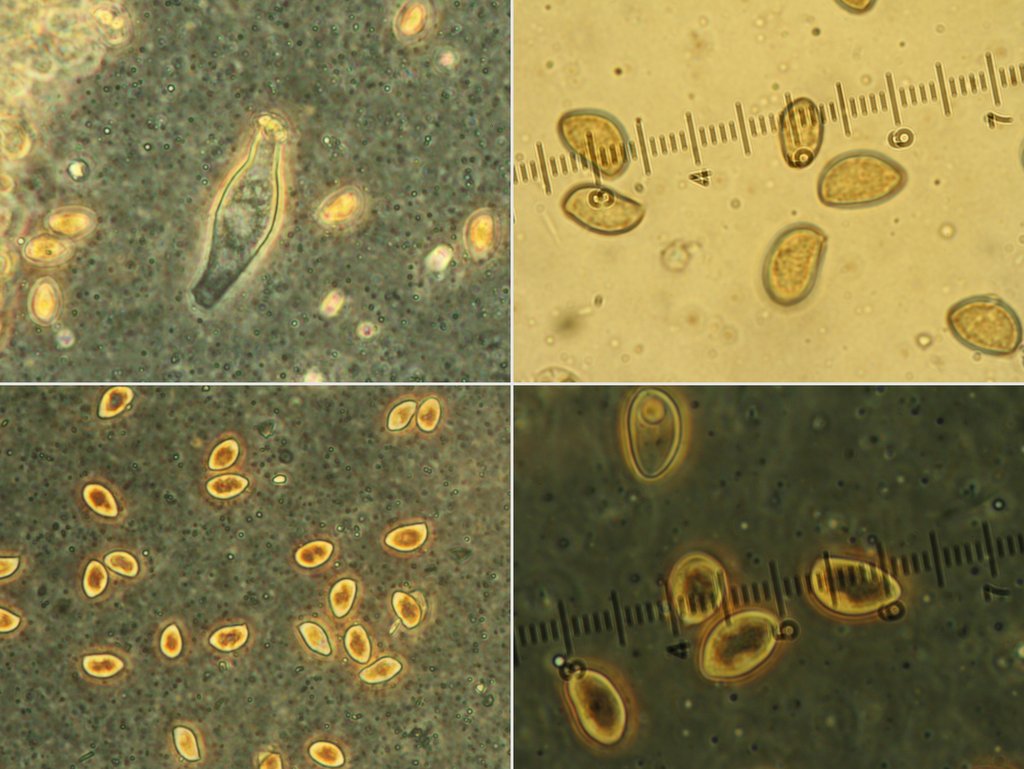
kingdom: Fungi
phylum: Basidiomycota
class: Agaricomycetes
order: Agaricales
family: Inocybaceae
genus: Inocybe
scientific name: Inocybe langei
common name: Langes trævlhat
